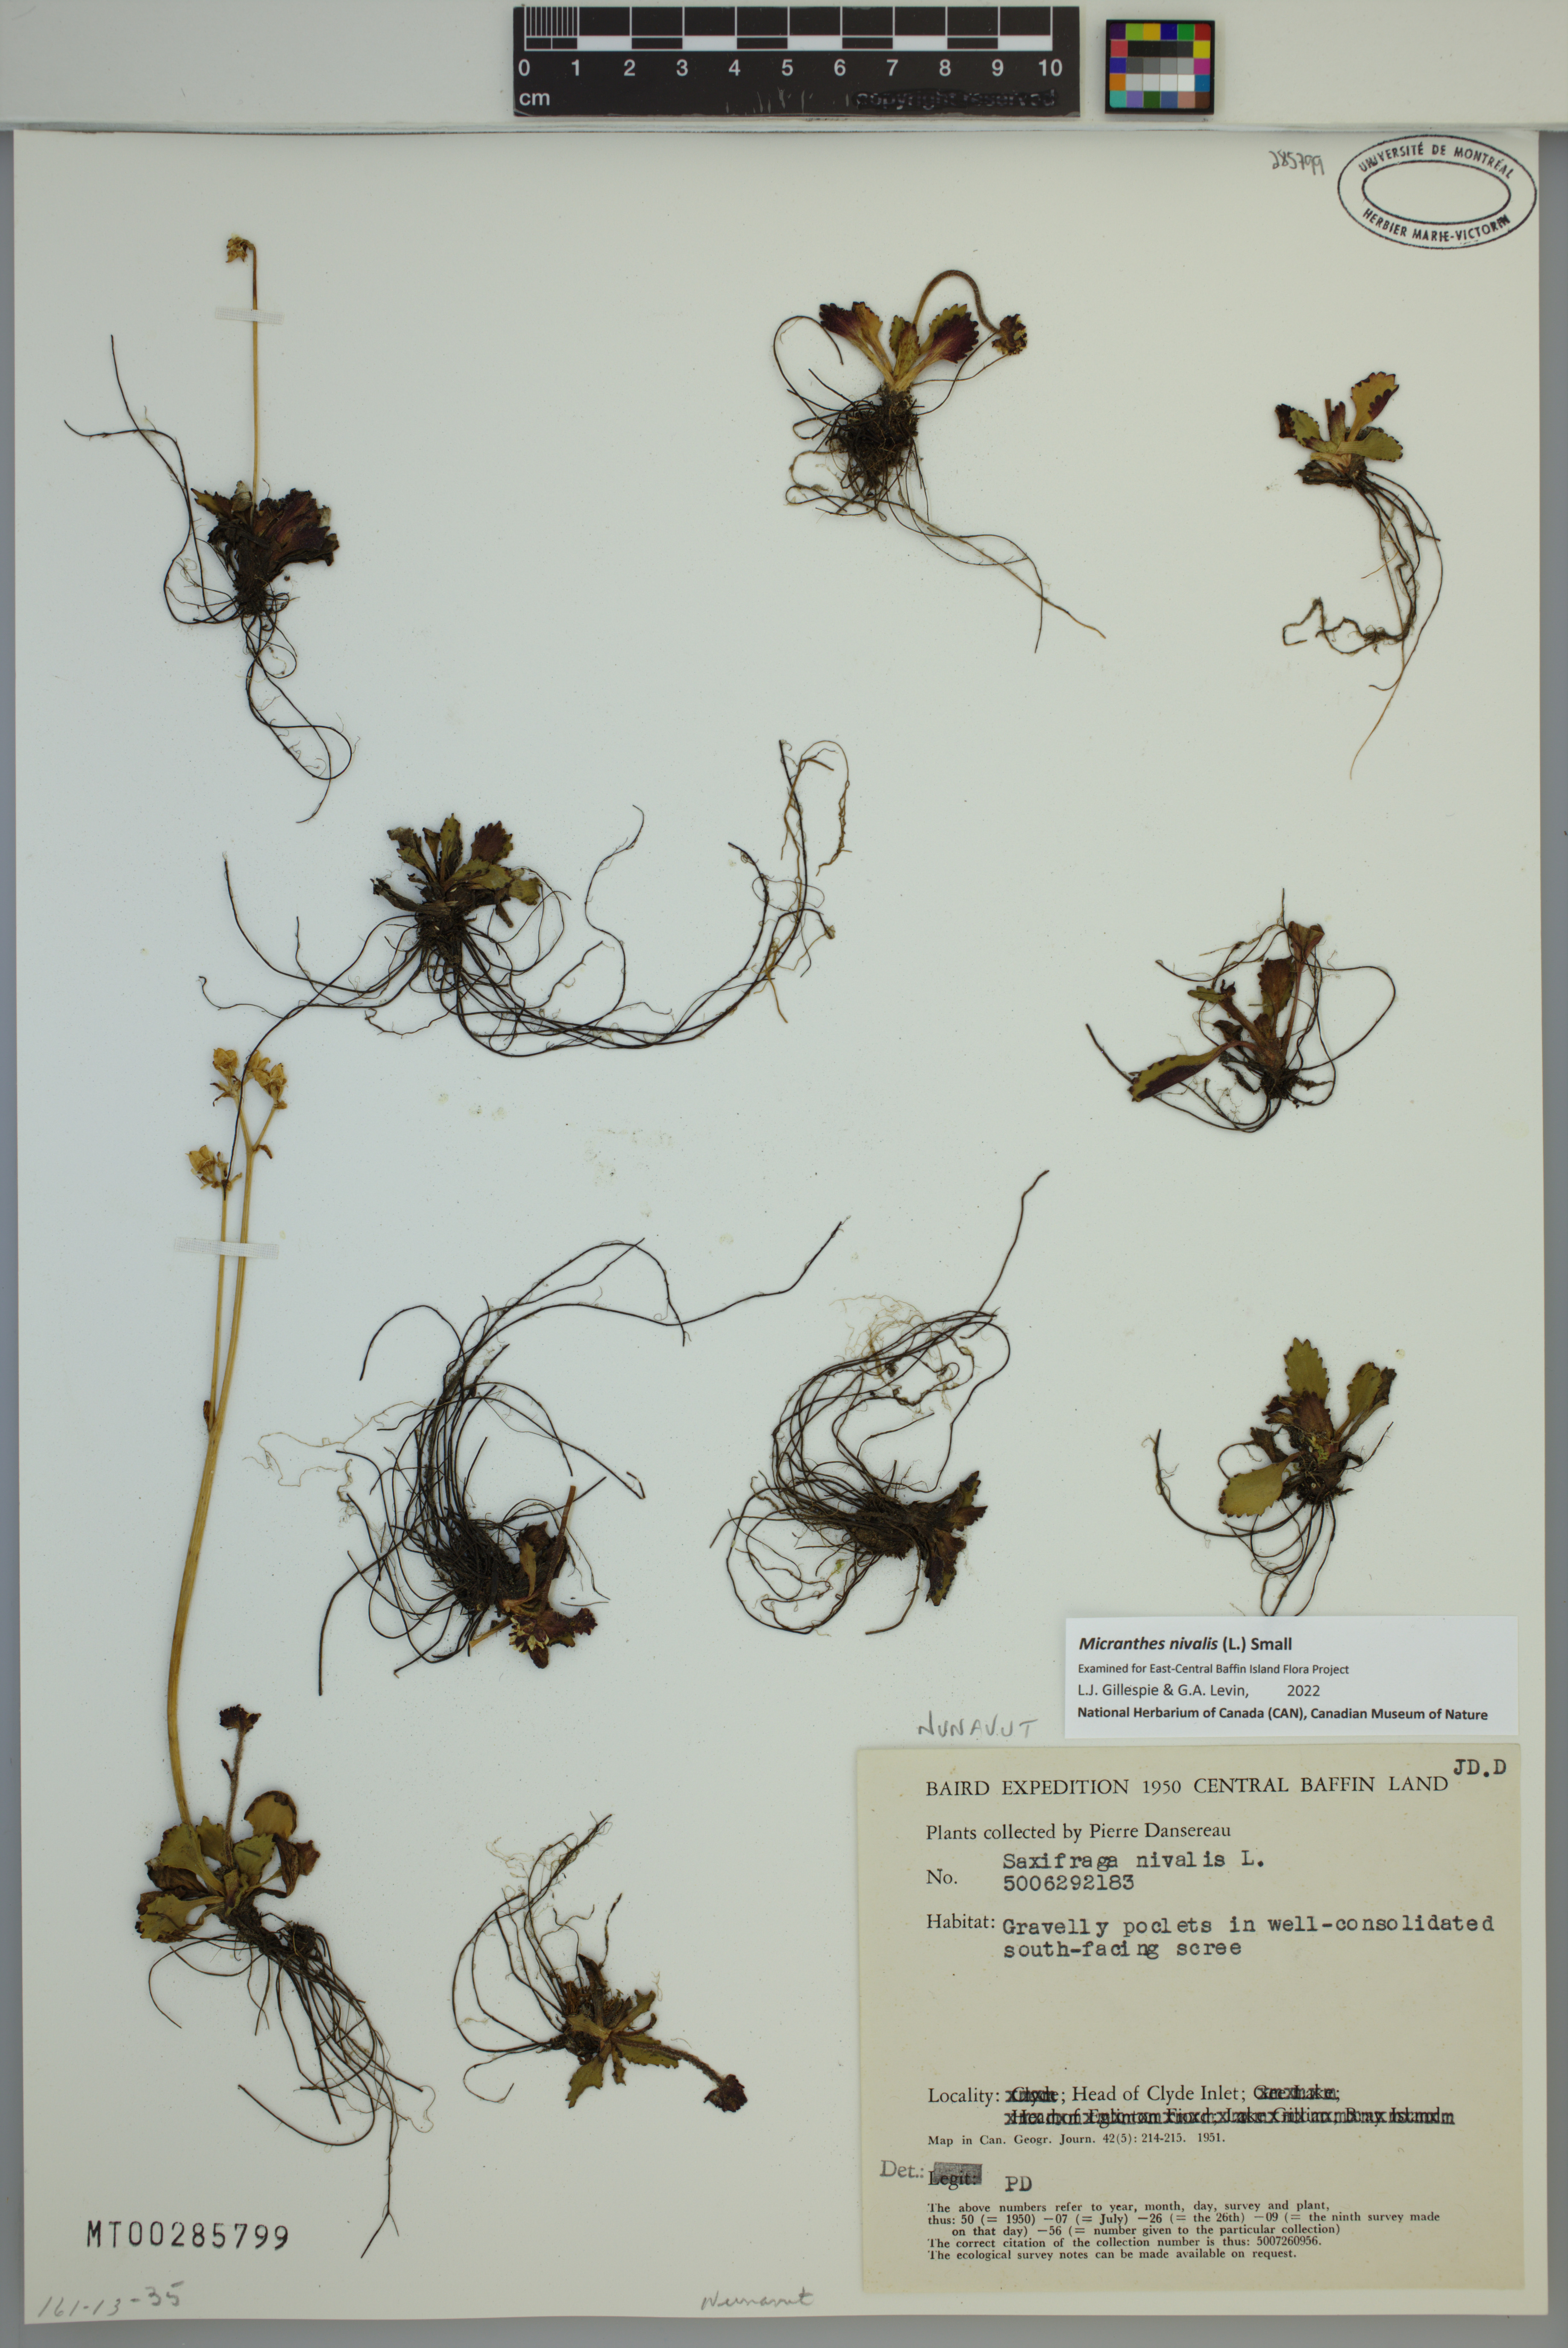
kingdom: Plantae
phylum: Tracheophyta
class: Magnoliopsida
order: Saxifragales
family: Saxifragaceae
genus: Micranthes
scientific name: Micranthes nivalis
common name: Alpine saxifrage
